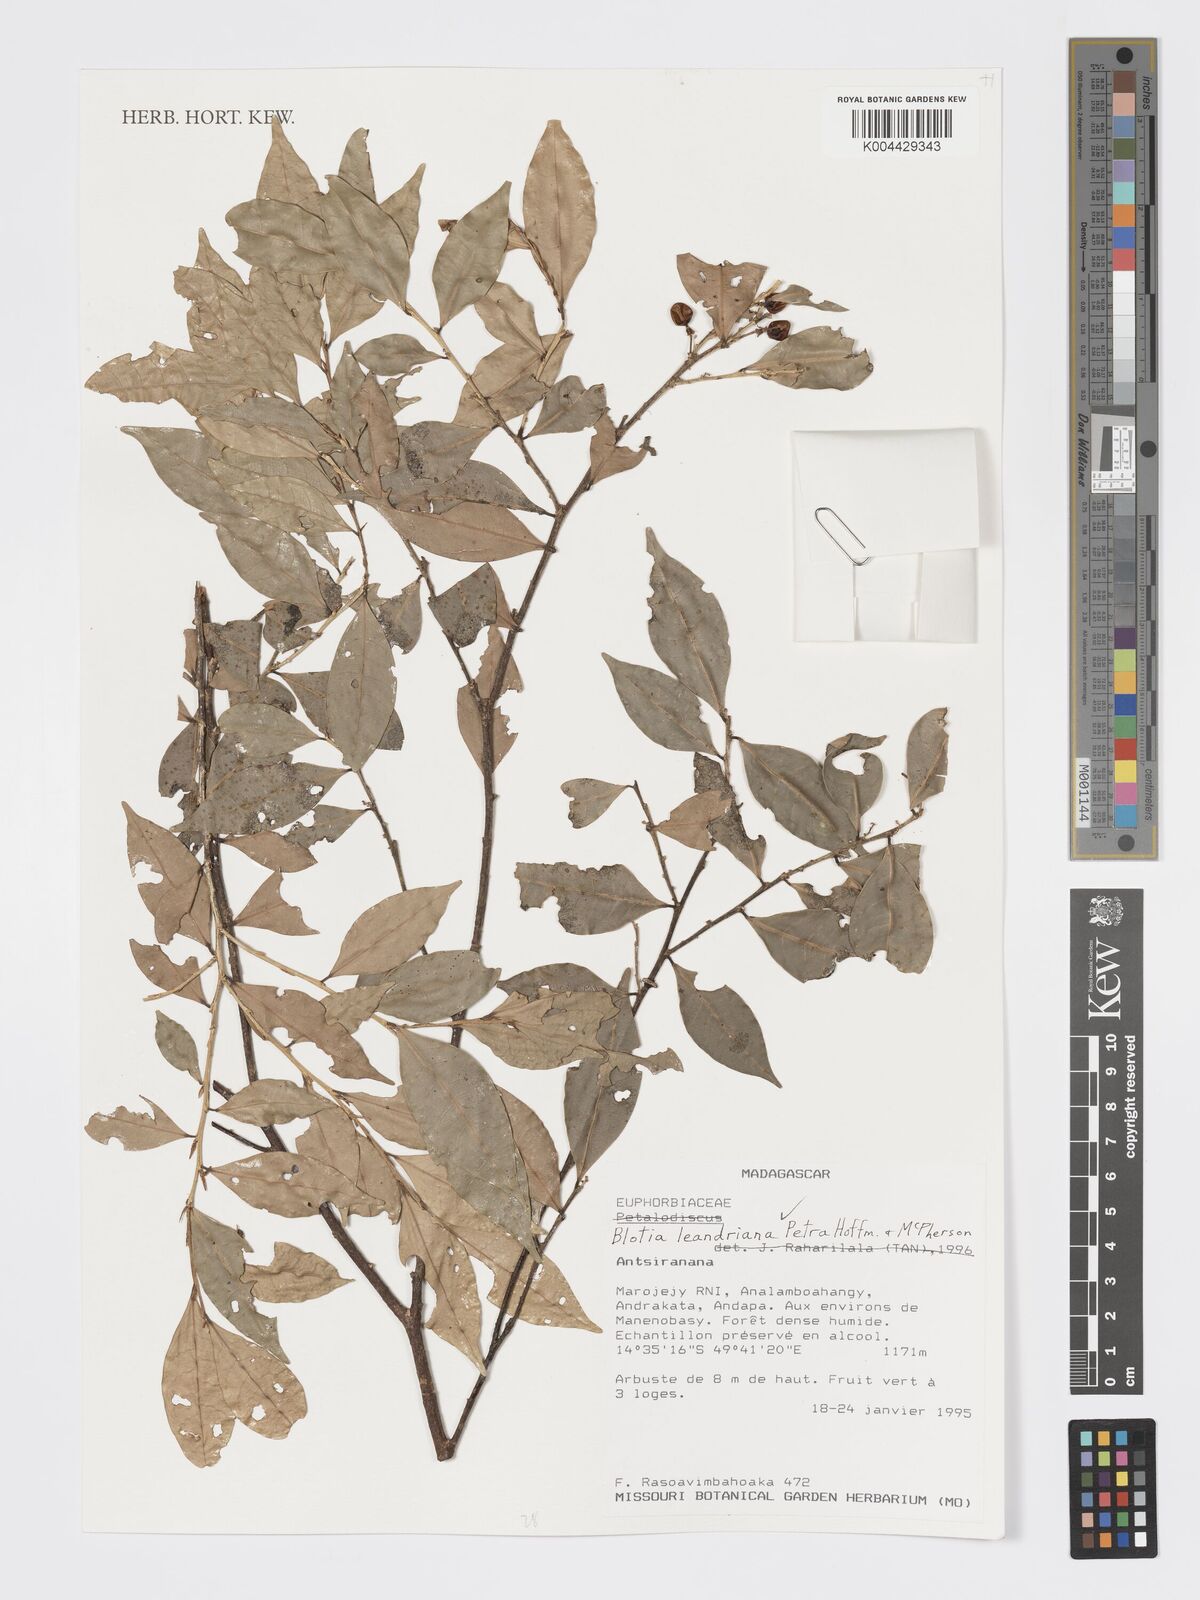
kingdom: Plantae
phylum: Tracheophyta
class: Magnoliopsida
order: Malpighiales
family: Phyllanthaceae
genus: Wielandia
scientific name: Wielandia leandriana
